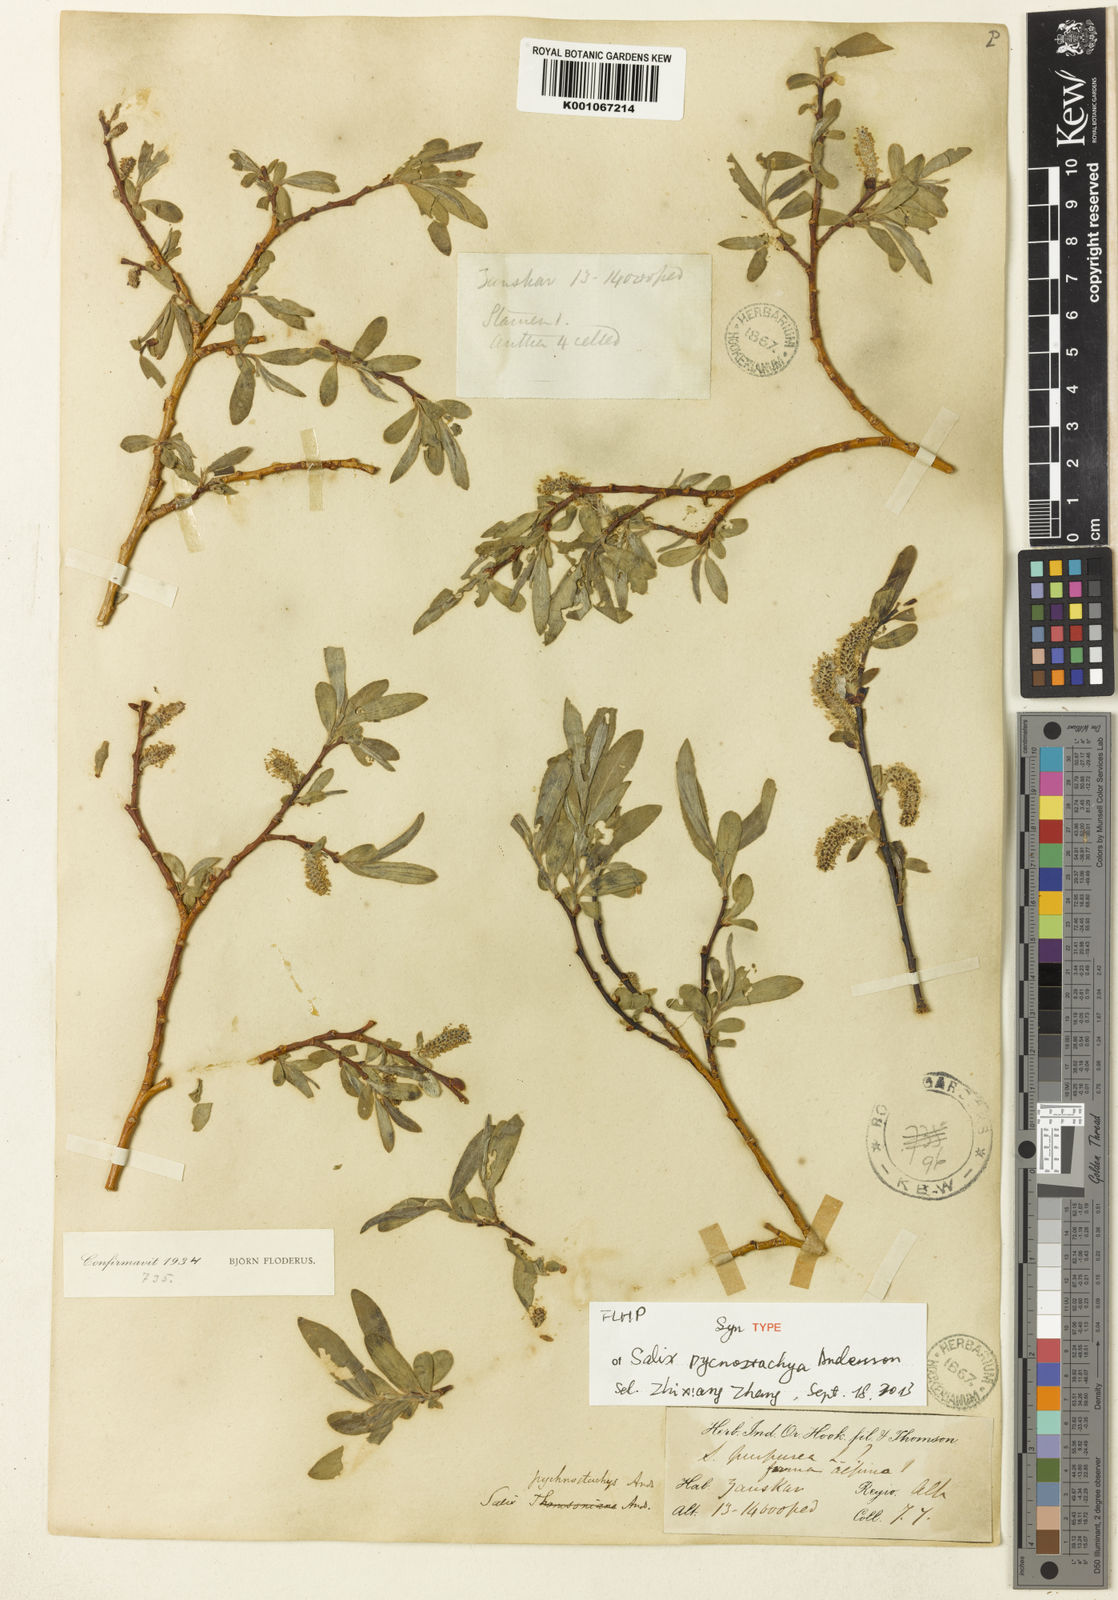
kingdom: Plantae
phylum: Tracheophyta
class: Magnoliopsida
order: Malpighiales
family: Salicaceae
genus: Salix
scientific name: Salix pycnostachya
